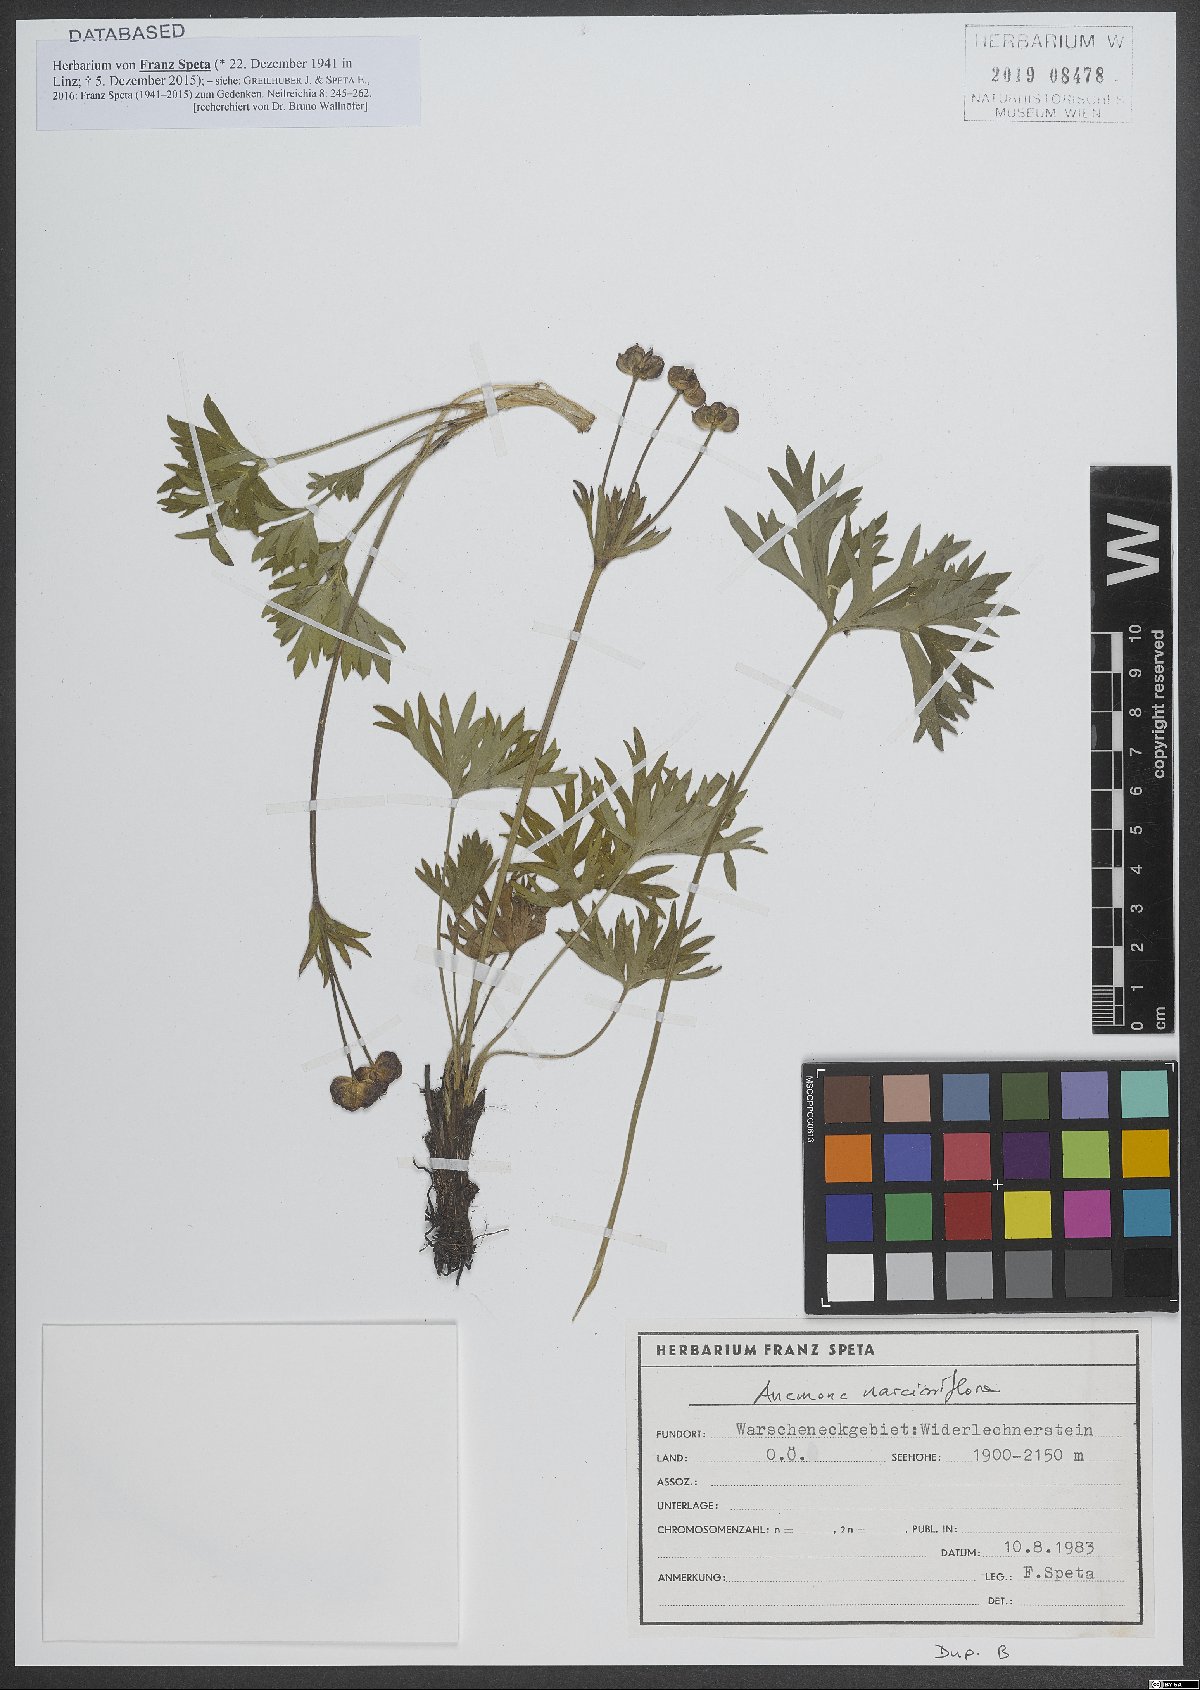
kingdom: Plantae
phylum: Tracheophyta
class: Magnoliopsida
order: Ranunculales
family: Ranunculaceae
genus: Anemonastrum
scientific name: Anemonastrum narcissiflorum
